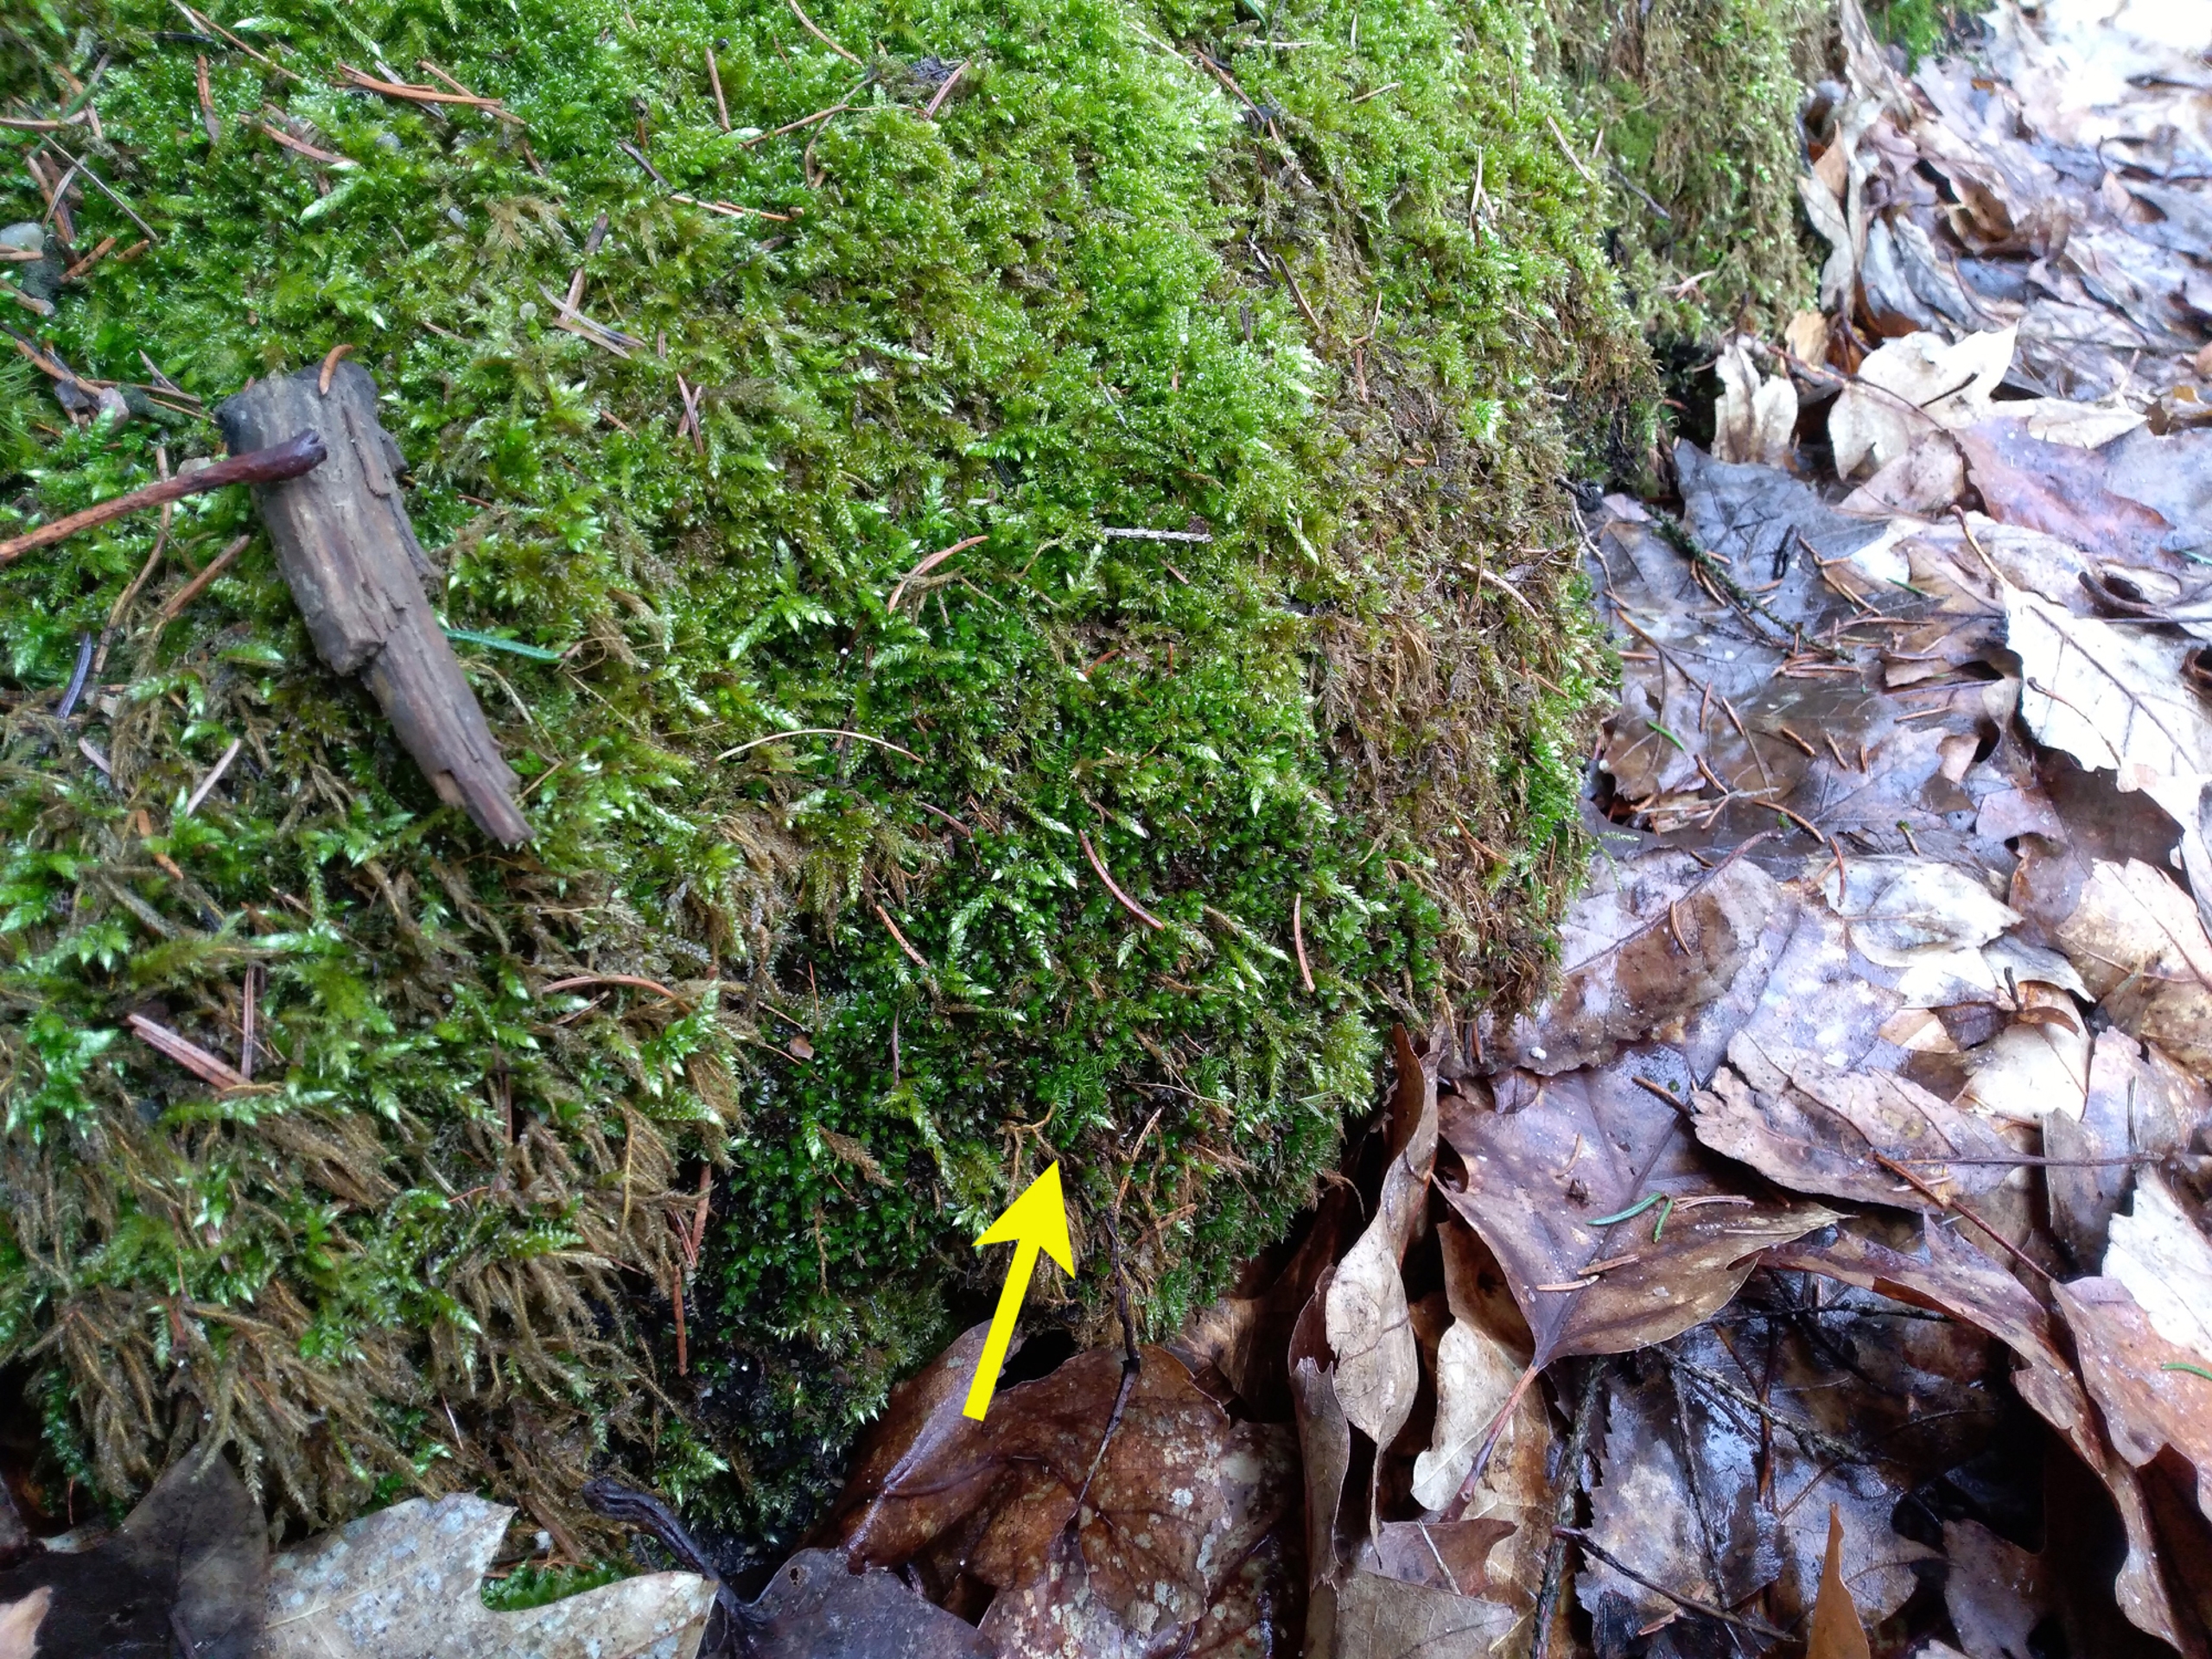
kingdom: Plantae
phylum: Bryophyta
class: Bryopsida
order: Bryales
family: Bryaceae
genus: Rosulabryum
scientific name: Rosulabryum moravicum
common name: Bark-bryum
